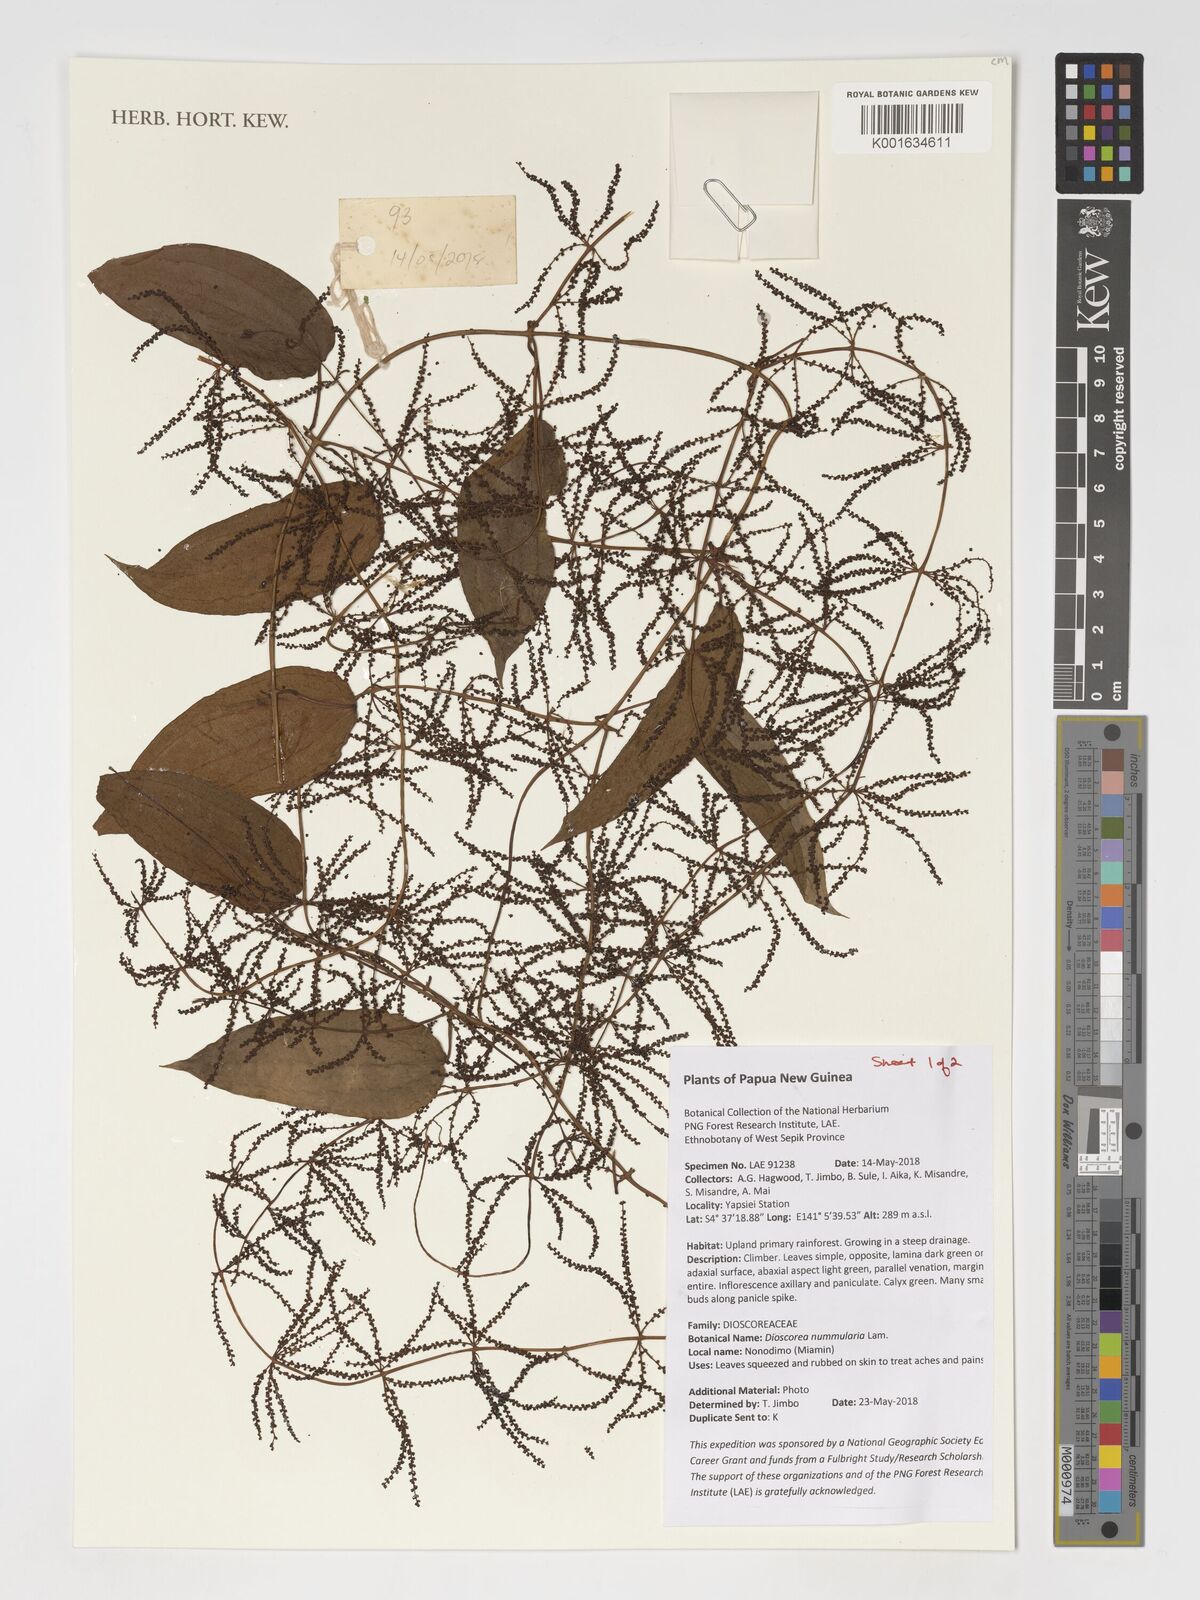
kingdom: Plantae
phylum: Tracheophyta
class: Liliopsida
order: Dioscoreales
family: Dioscoreaceae
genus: Dioscorea
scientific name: Dioscorea nummularia
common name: Pacific yam
